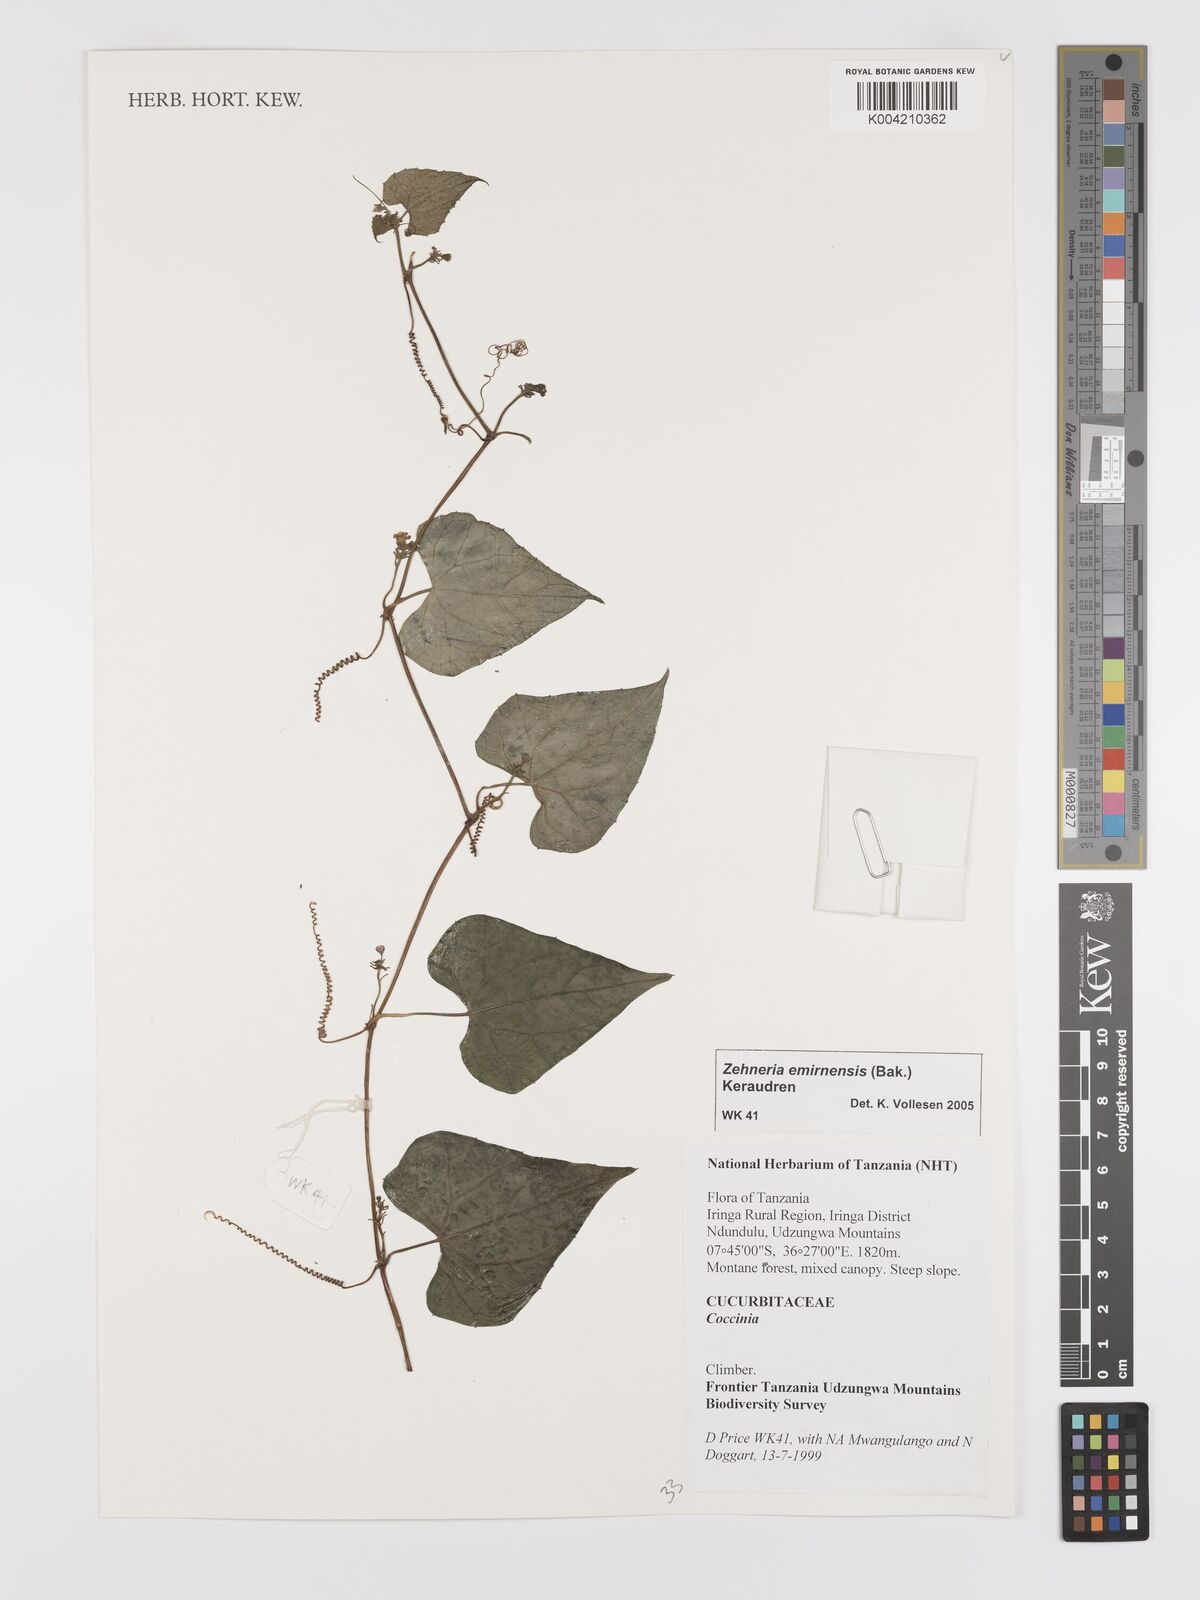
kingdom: Plantae
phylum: Tracheophyta
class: Magnoliopsida
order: Cucurbitales
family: Cucurbitaceae
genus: Zehneria
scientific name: Zehneria emirnensis
